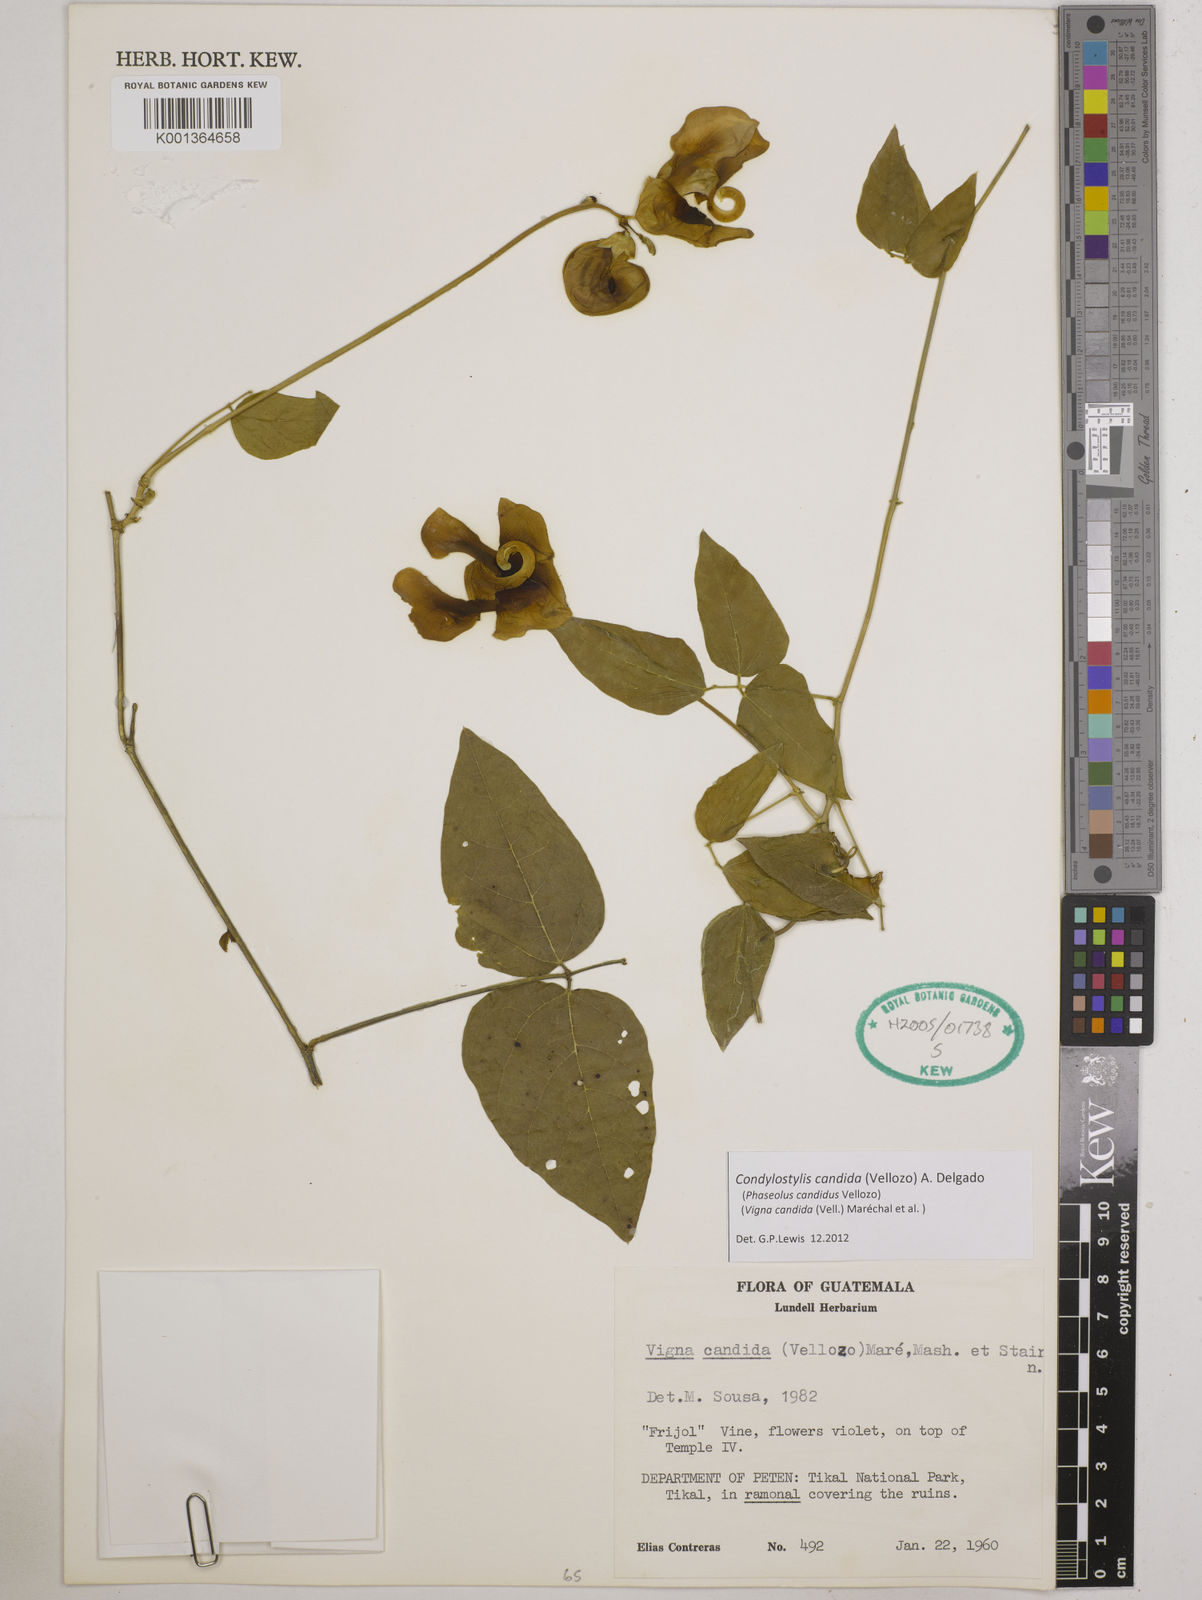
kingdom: Plantae
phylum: Tracheophyta
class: Magnoliopsida
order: Fabales
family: Fabaceae
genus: Condylostylis
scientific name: Condylostylis candida
